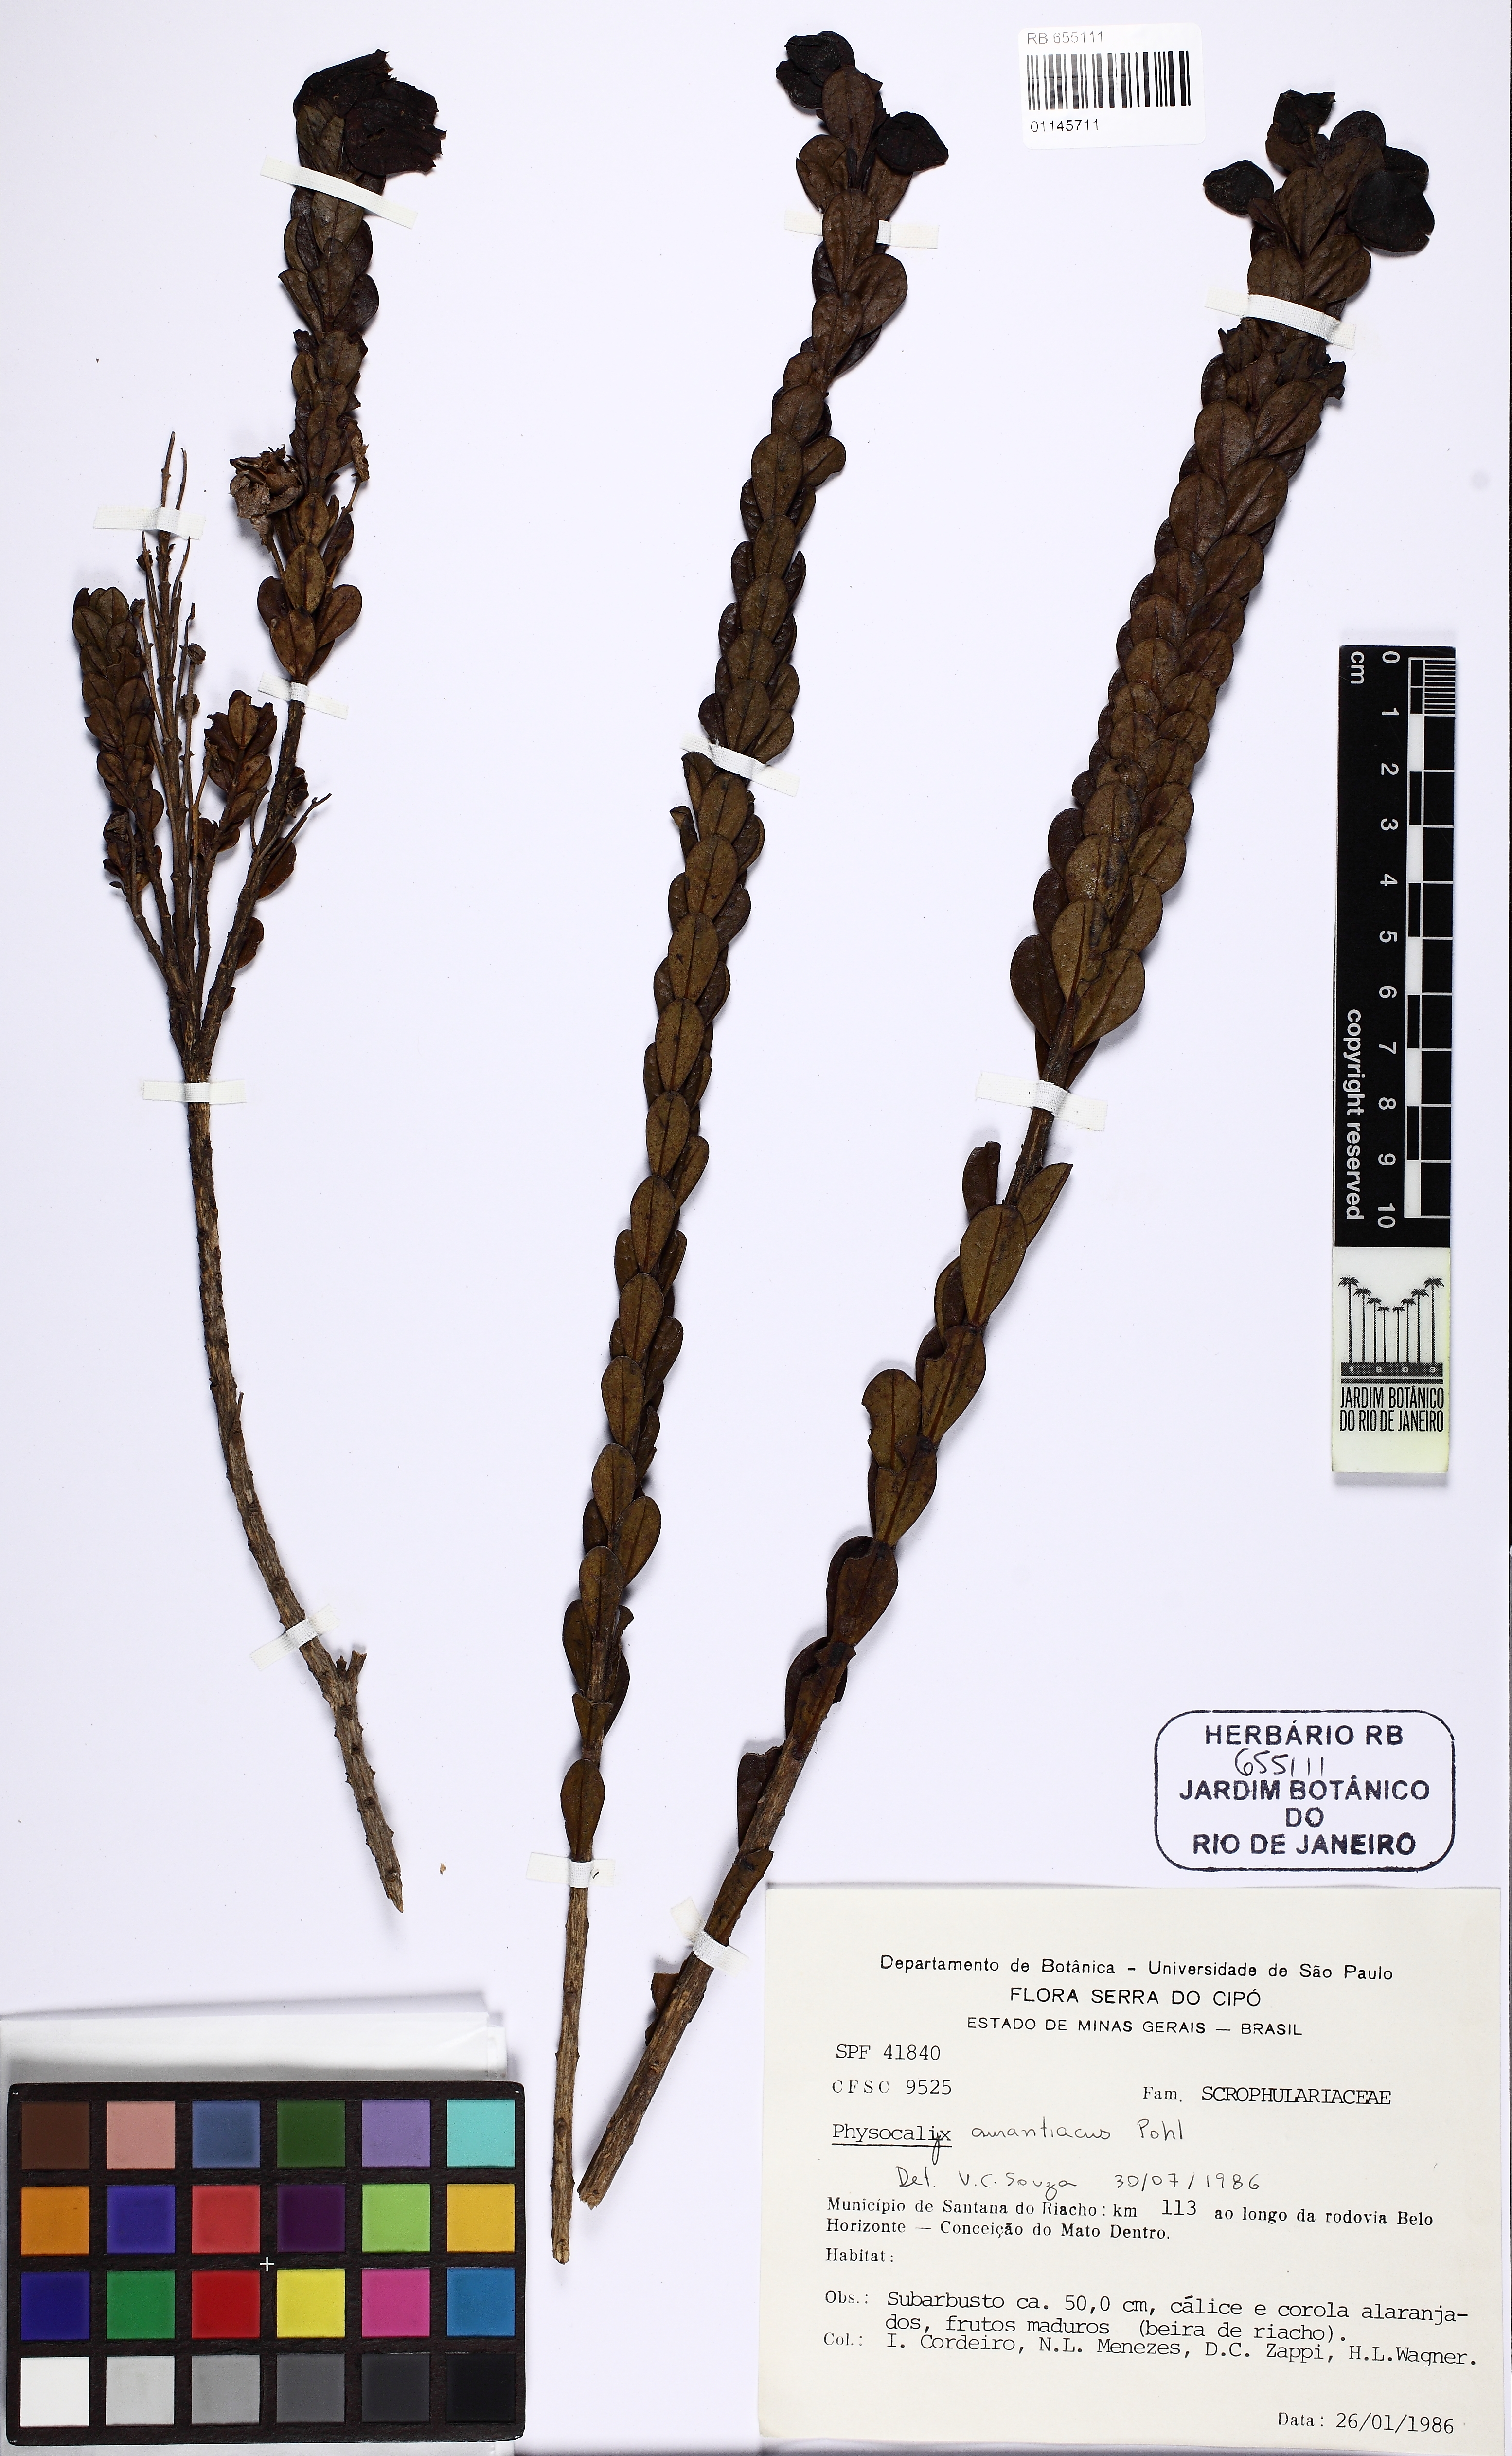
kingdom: Plantae
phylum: Tracheophyta
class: Magnoliopsida
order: Lamiales
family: Orobanchaceae
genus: Physocalyx
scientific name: Physocalyx aurantiacus
